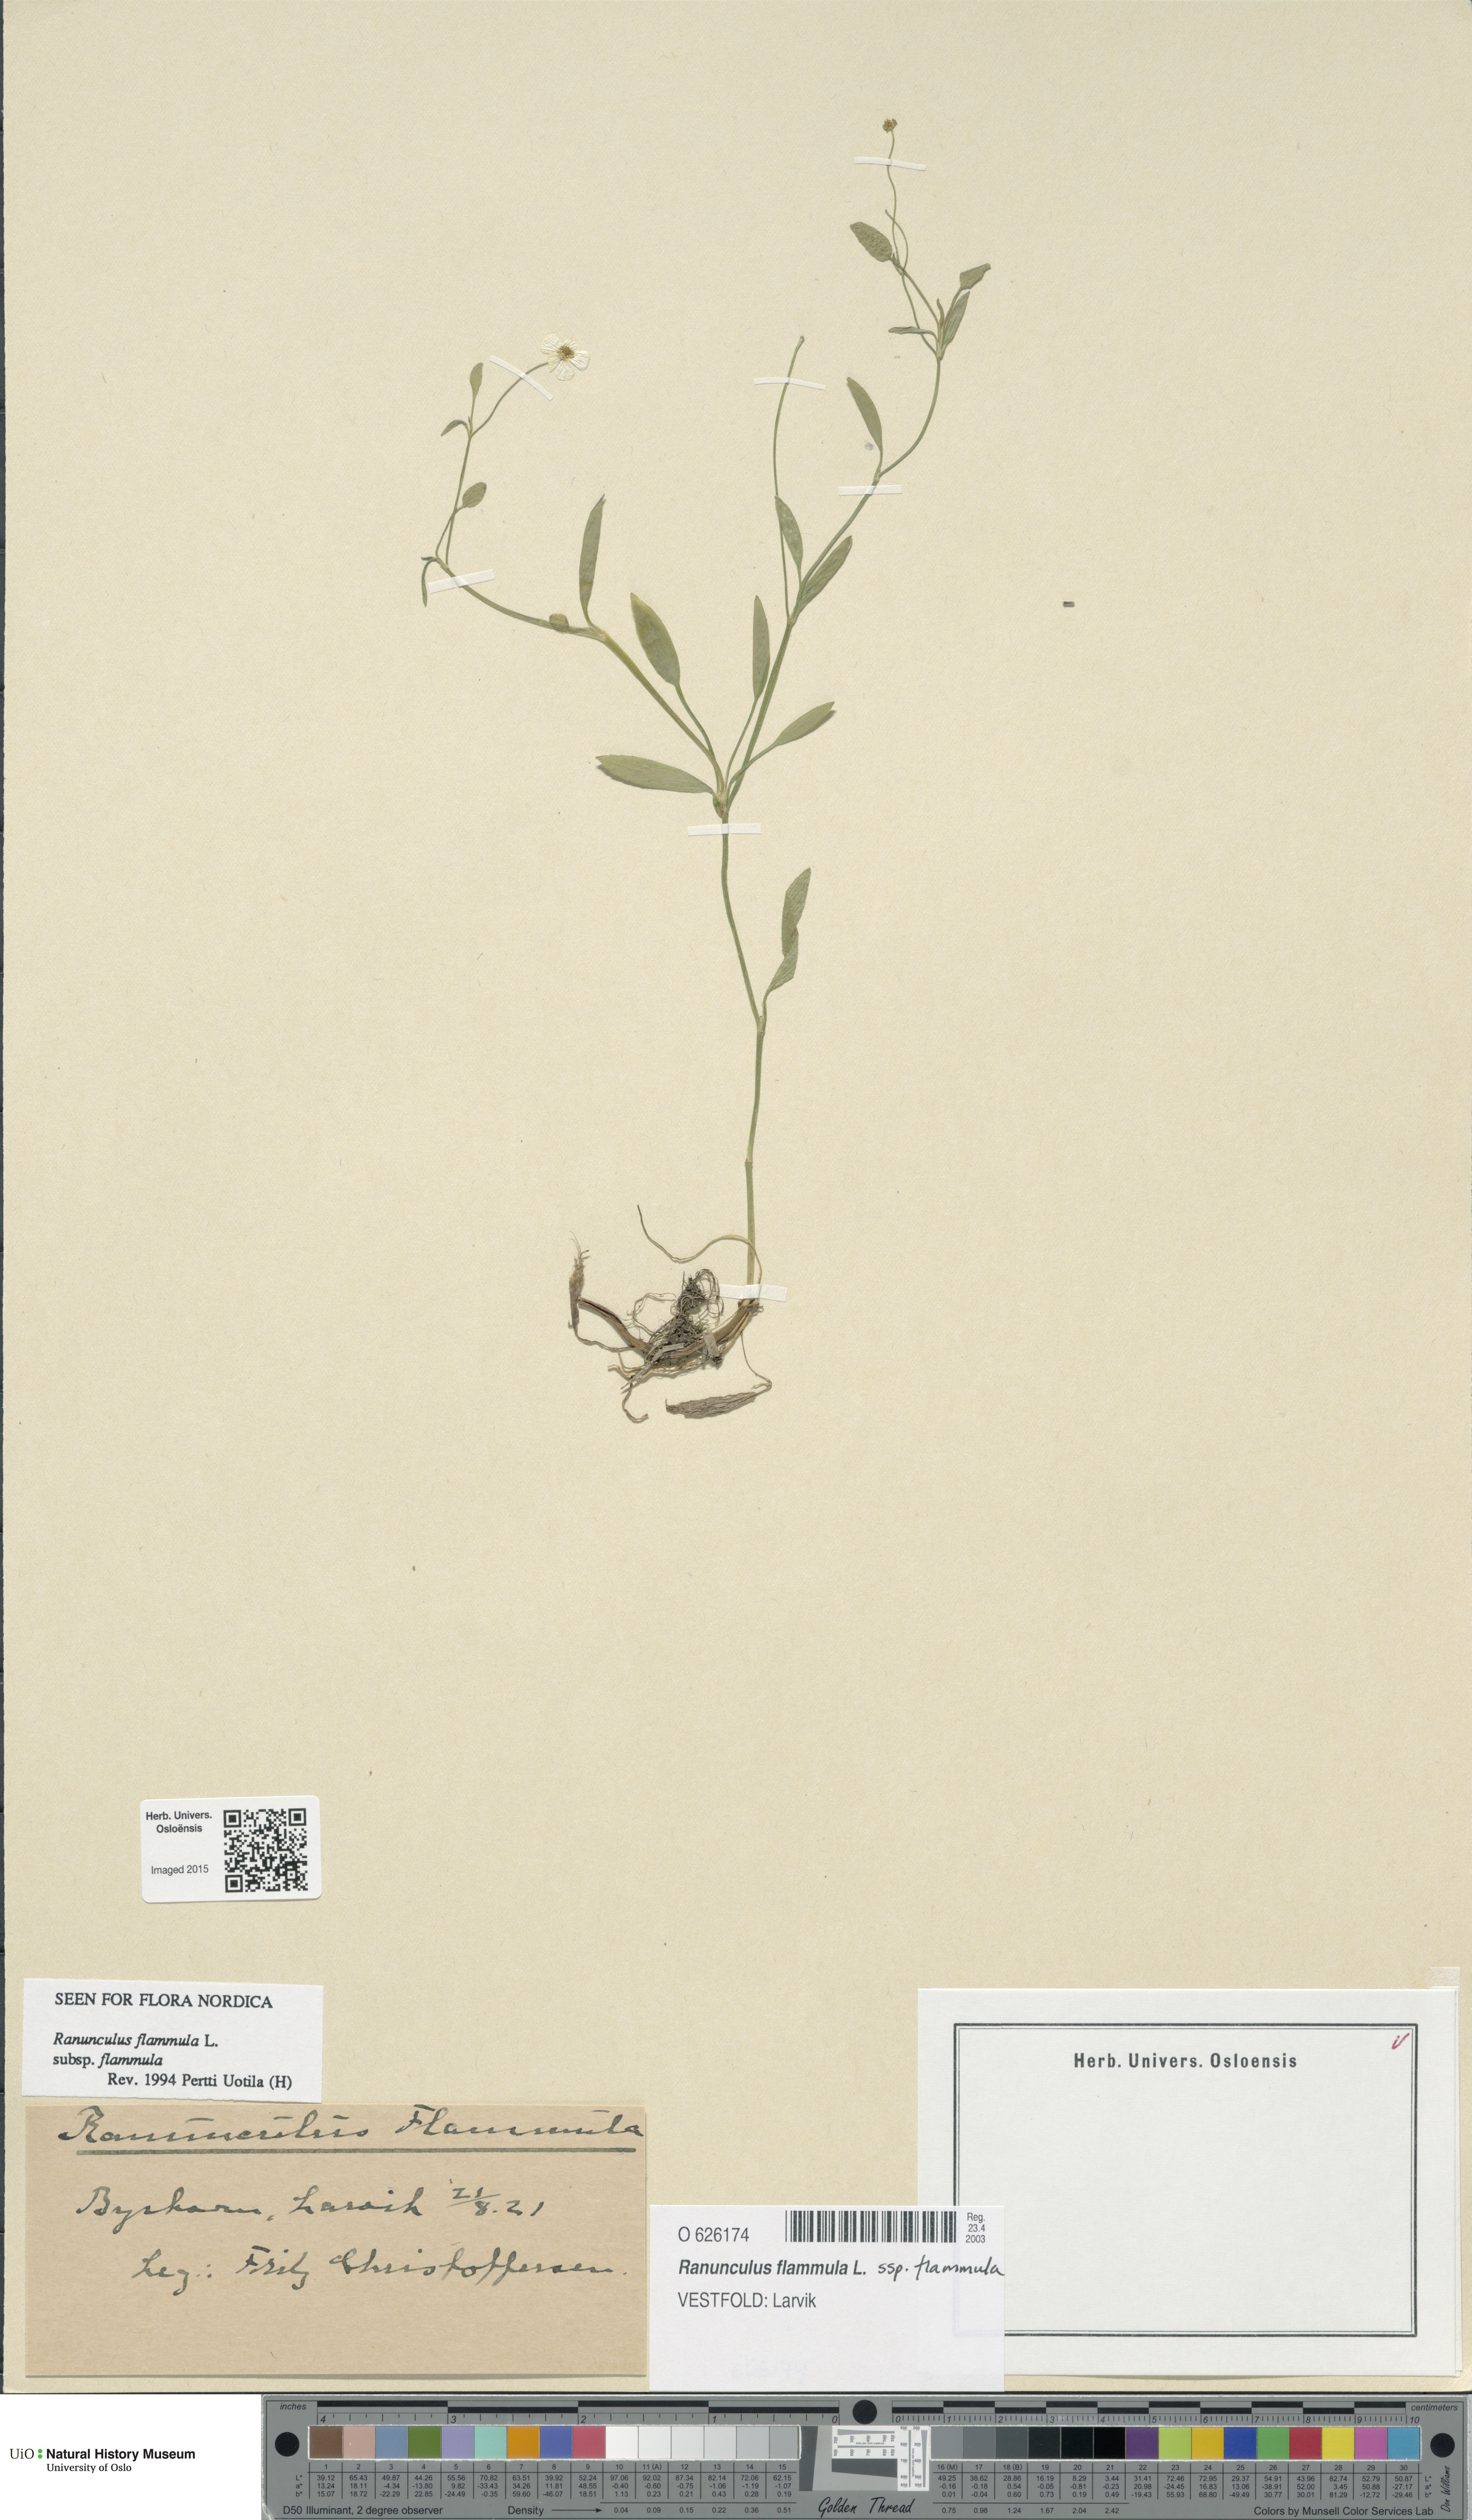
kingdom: Plantae
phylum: Tracheophyta
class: Magnoliopsida
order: Ranunculales
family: Ranunculaceae
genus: Ranunculus
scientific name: Ranunculus flammula
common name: Lesser spearwort
